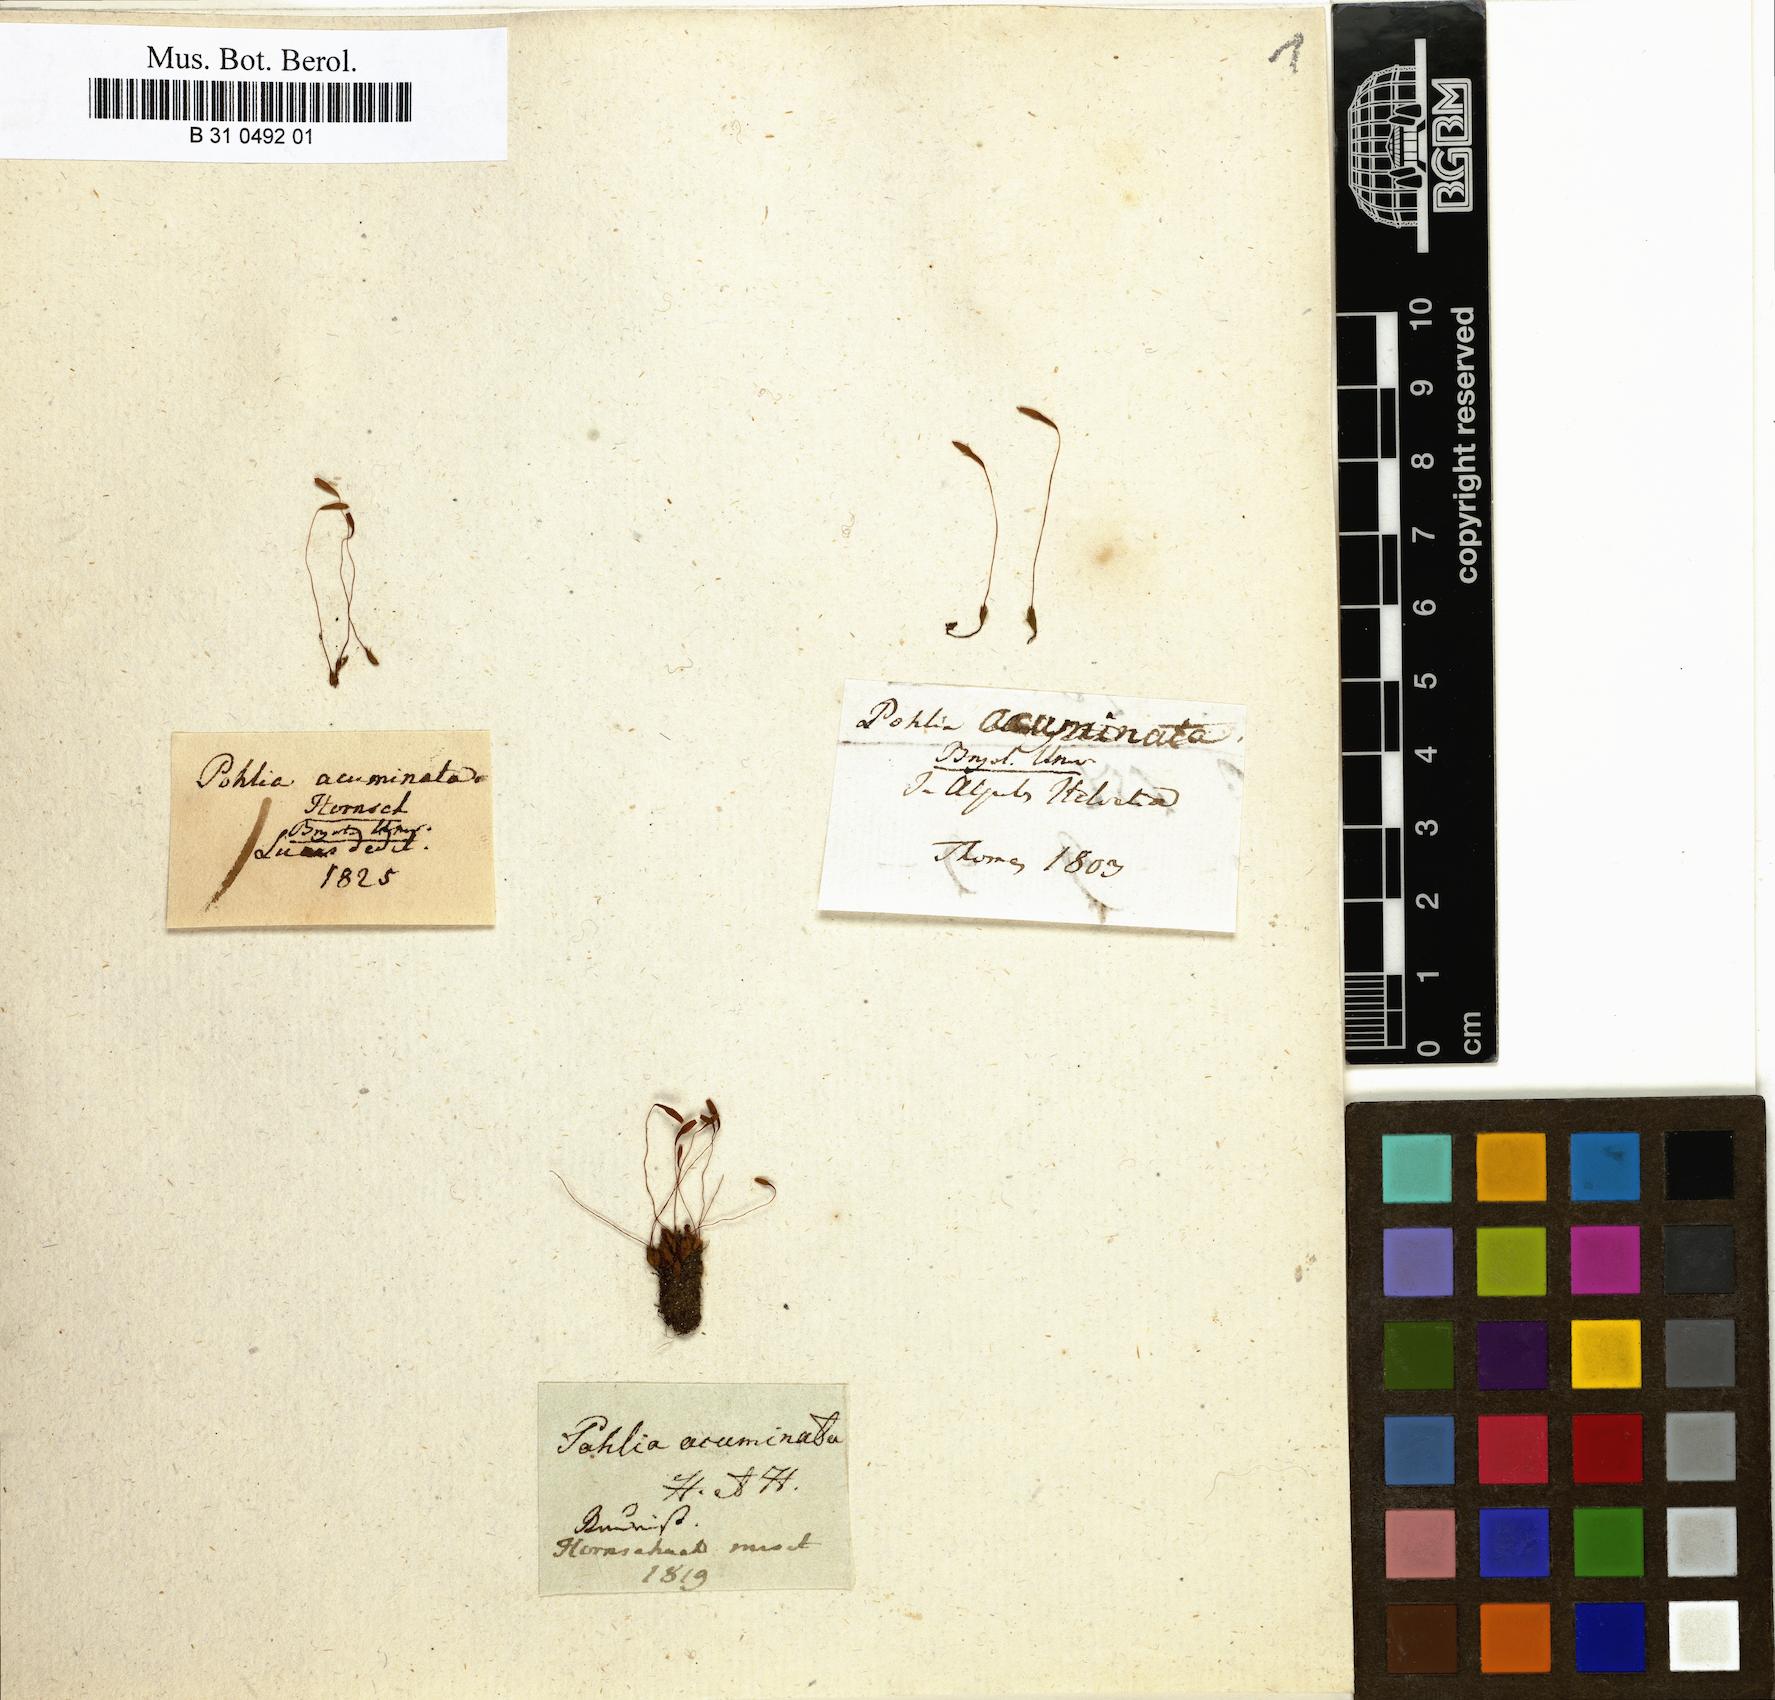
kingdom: Plantae
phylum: Bryophyta
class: Bryopsida
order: Bryales
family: Mniaceae
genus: Pohlia
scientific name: Pohlia elongata
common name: Long-fruited thread-moss
